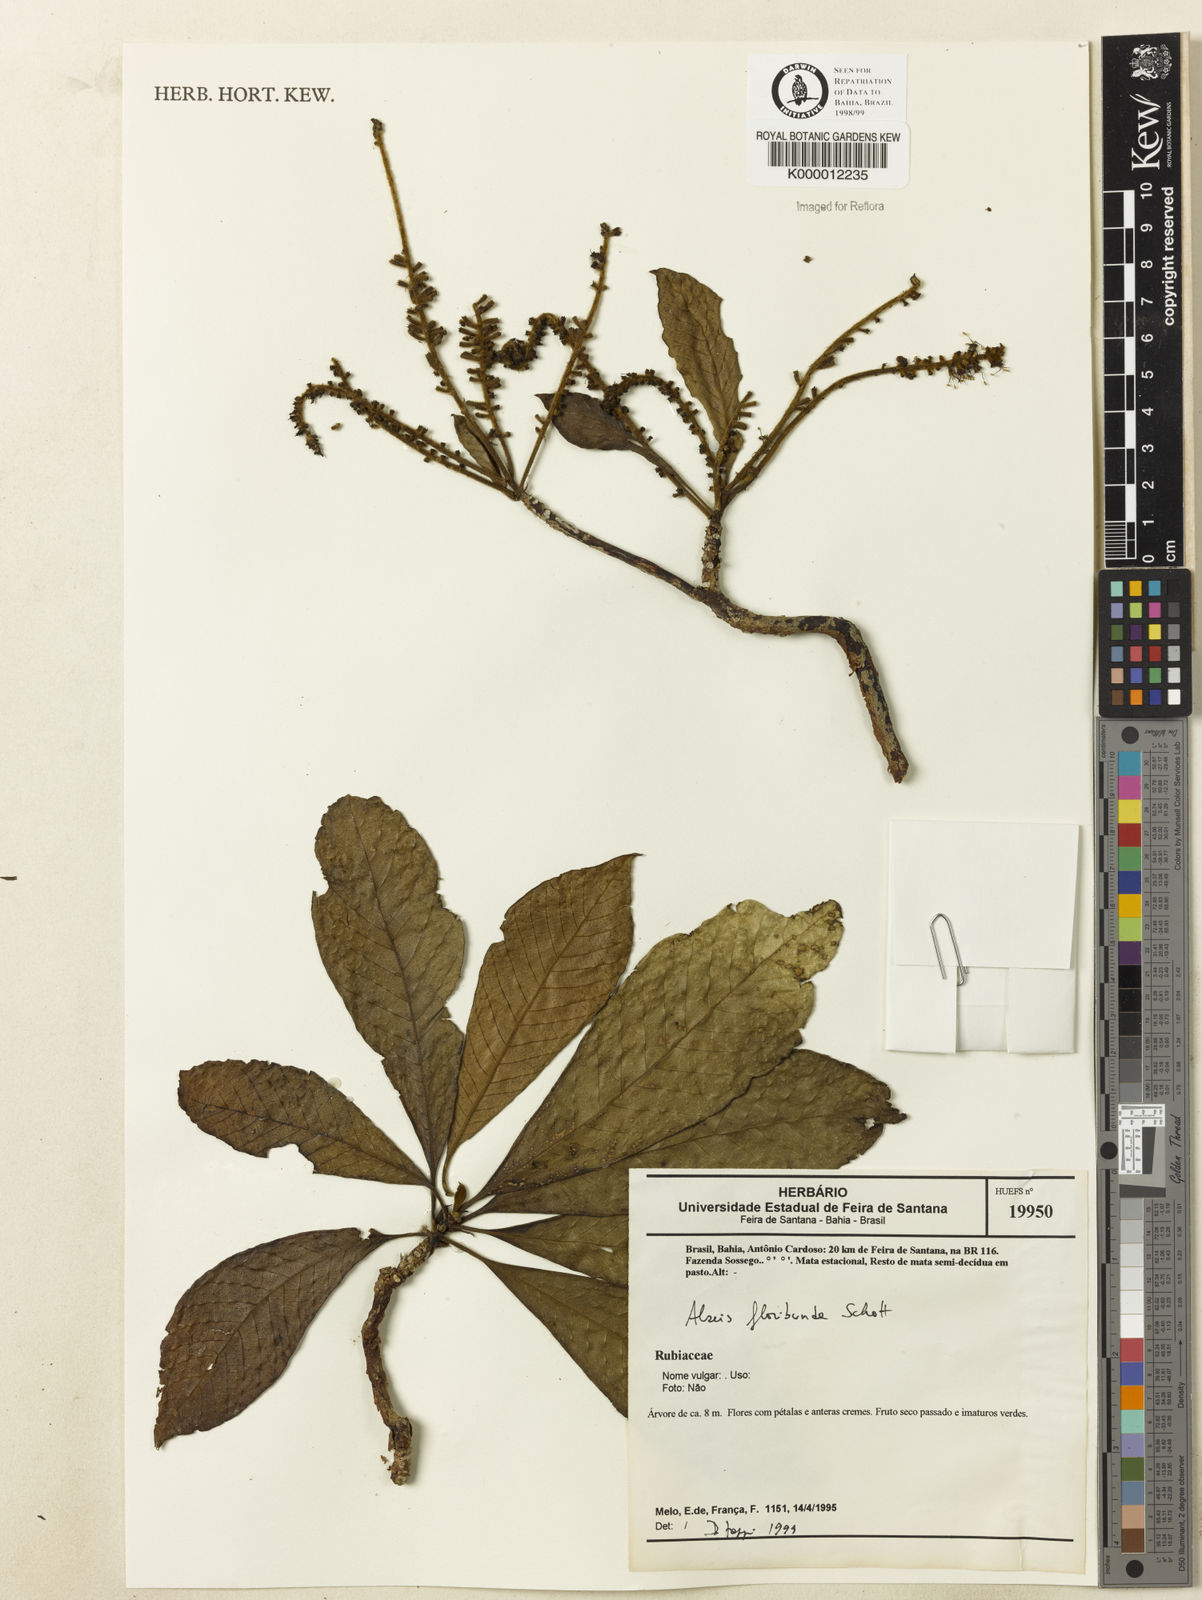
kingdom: Plantae
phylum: Tracheophyta
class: Magnoliopsida
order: Gentianales
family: Rubiaceae
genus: Alseis
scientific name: Alseis floribunda
